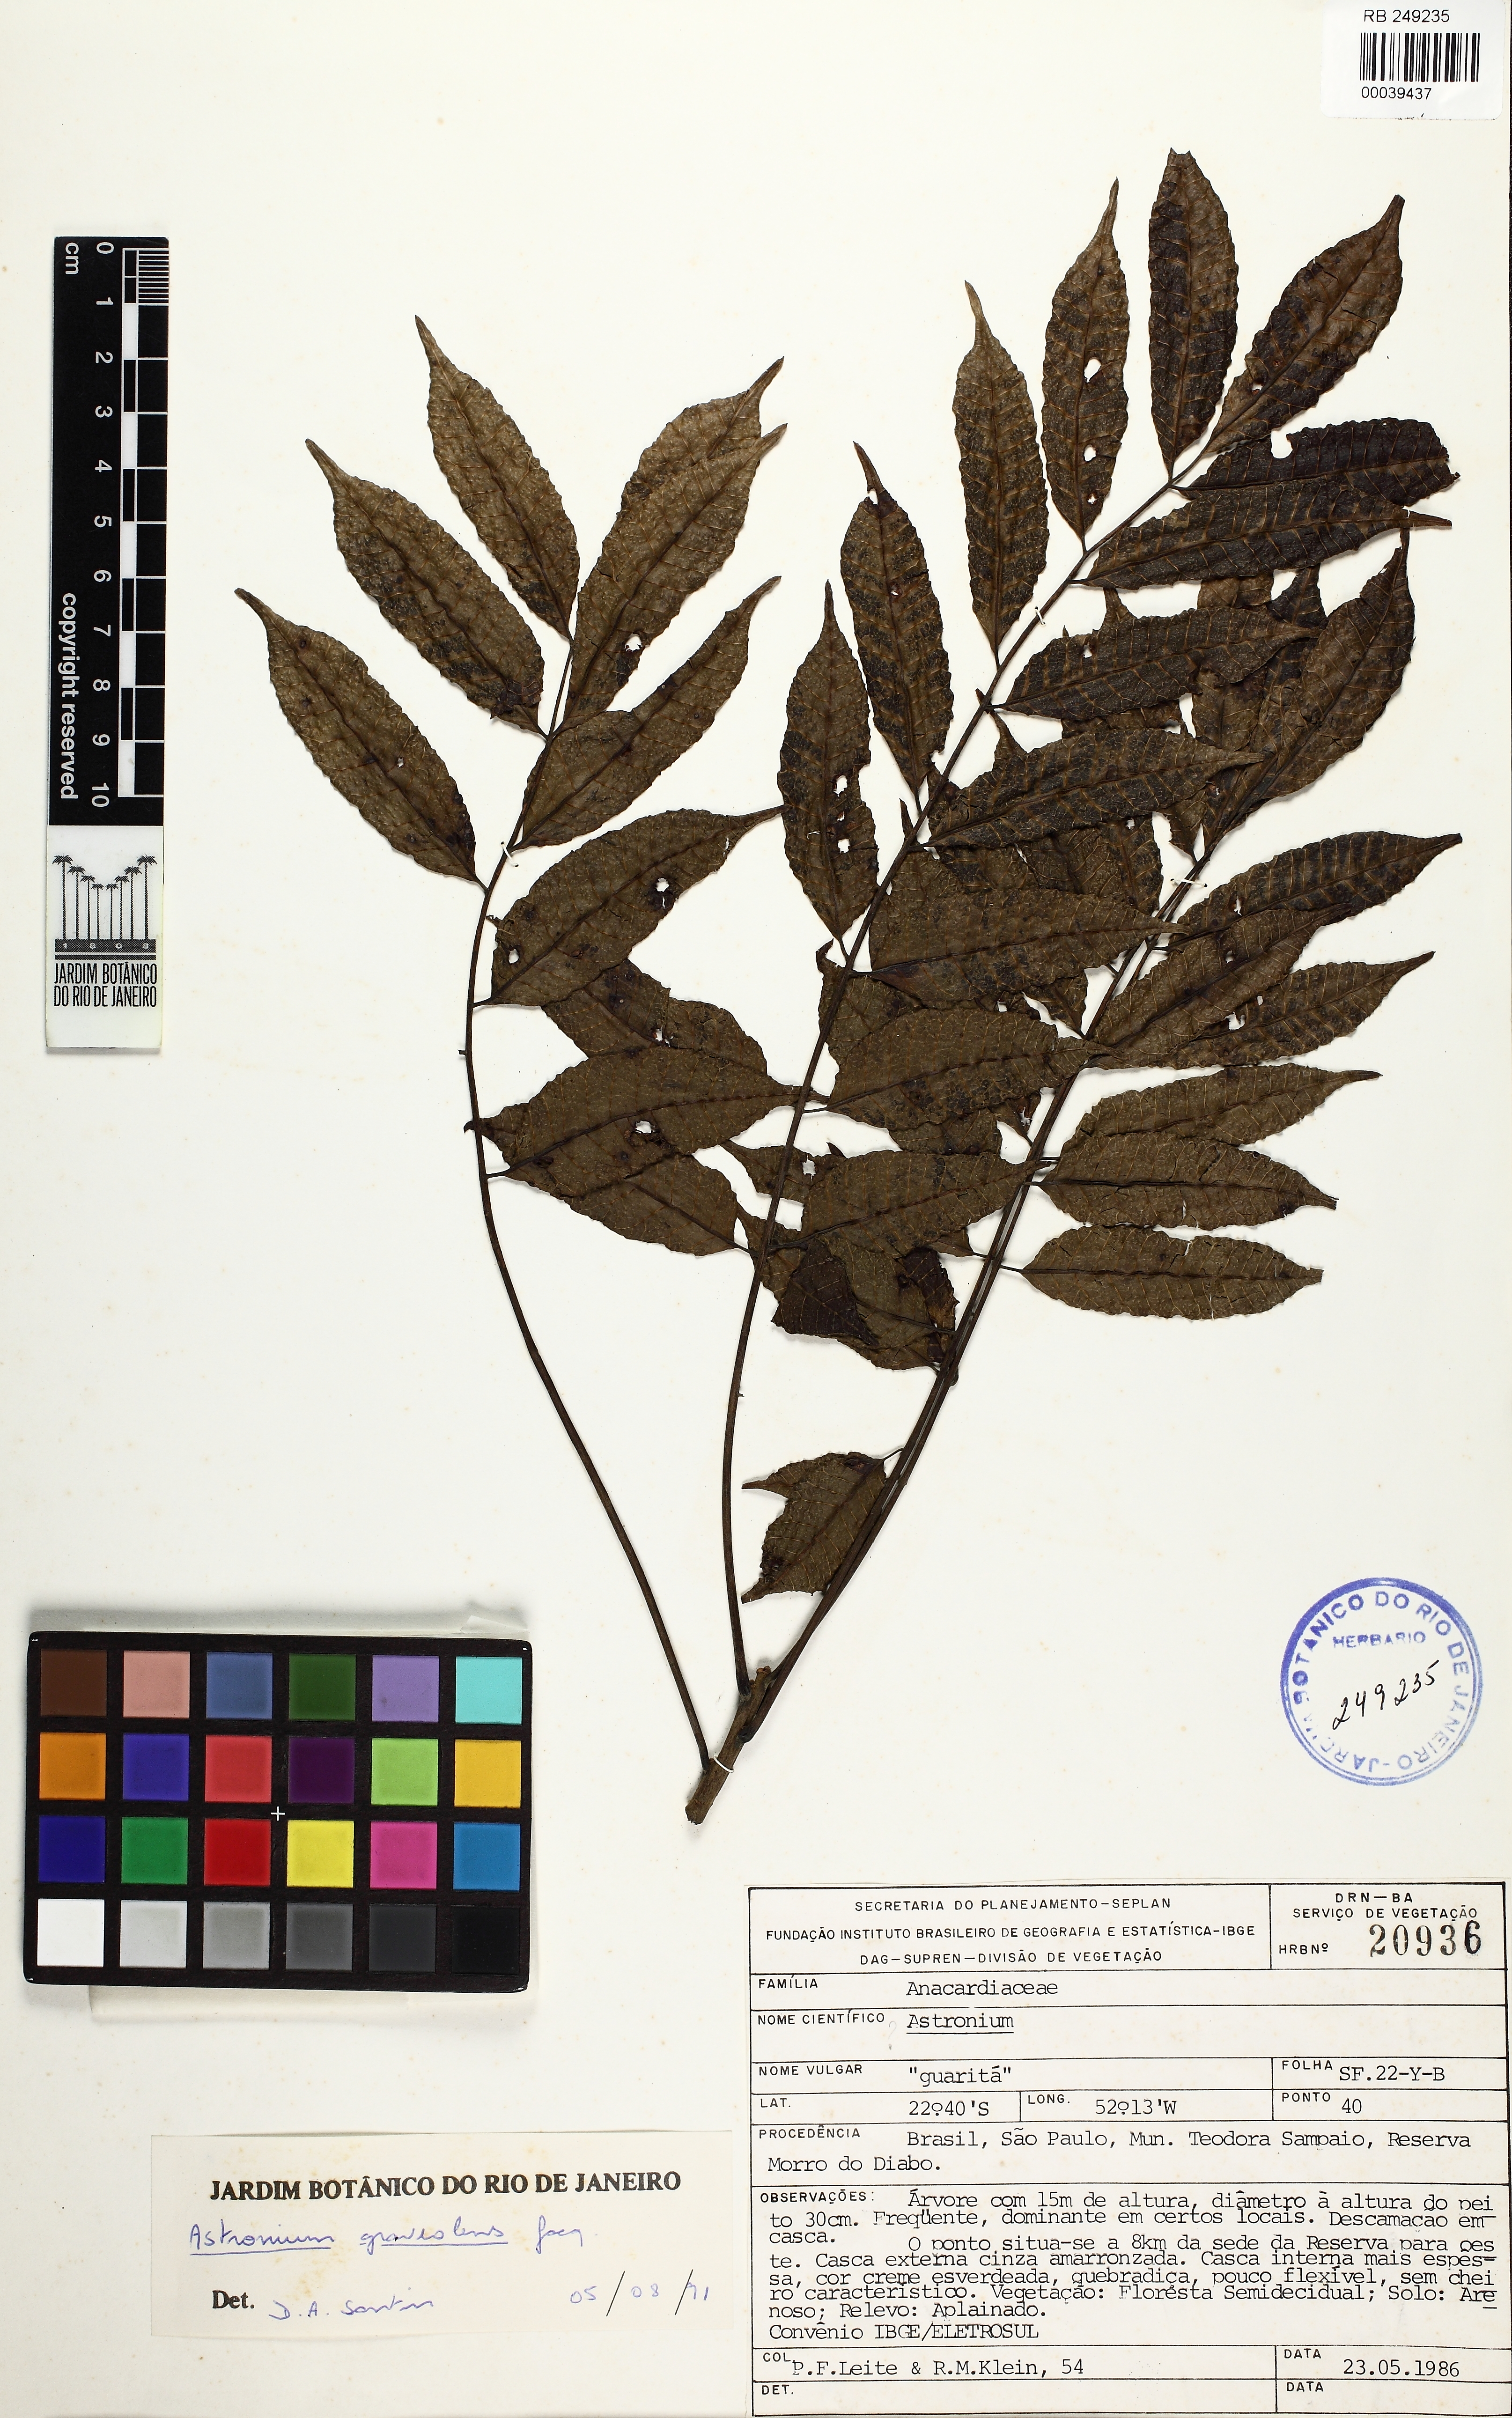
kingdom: Plantae
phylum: Tracheophyta
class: Magnoliopsida
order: Sapindales
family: Anacardiaceae
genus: Astronium
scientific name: Astronium graveolens
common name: Glassywood
